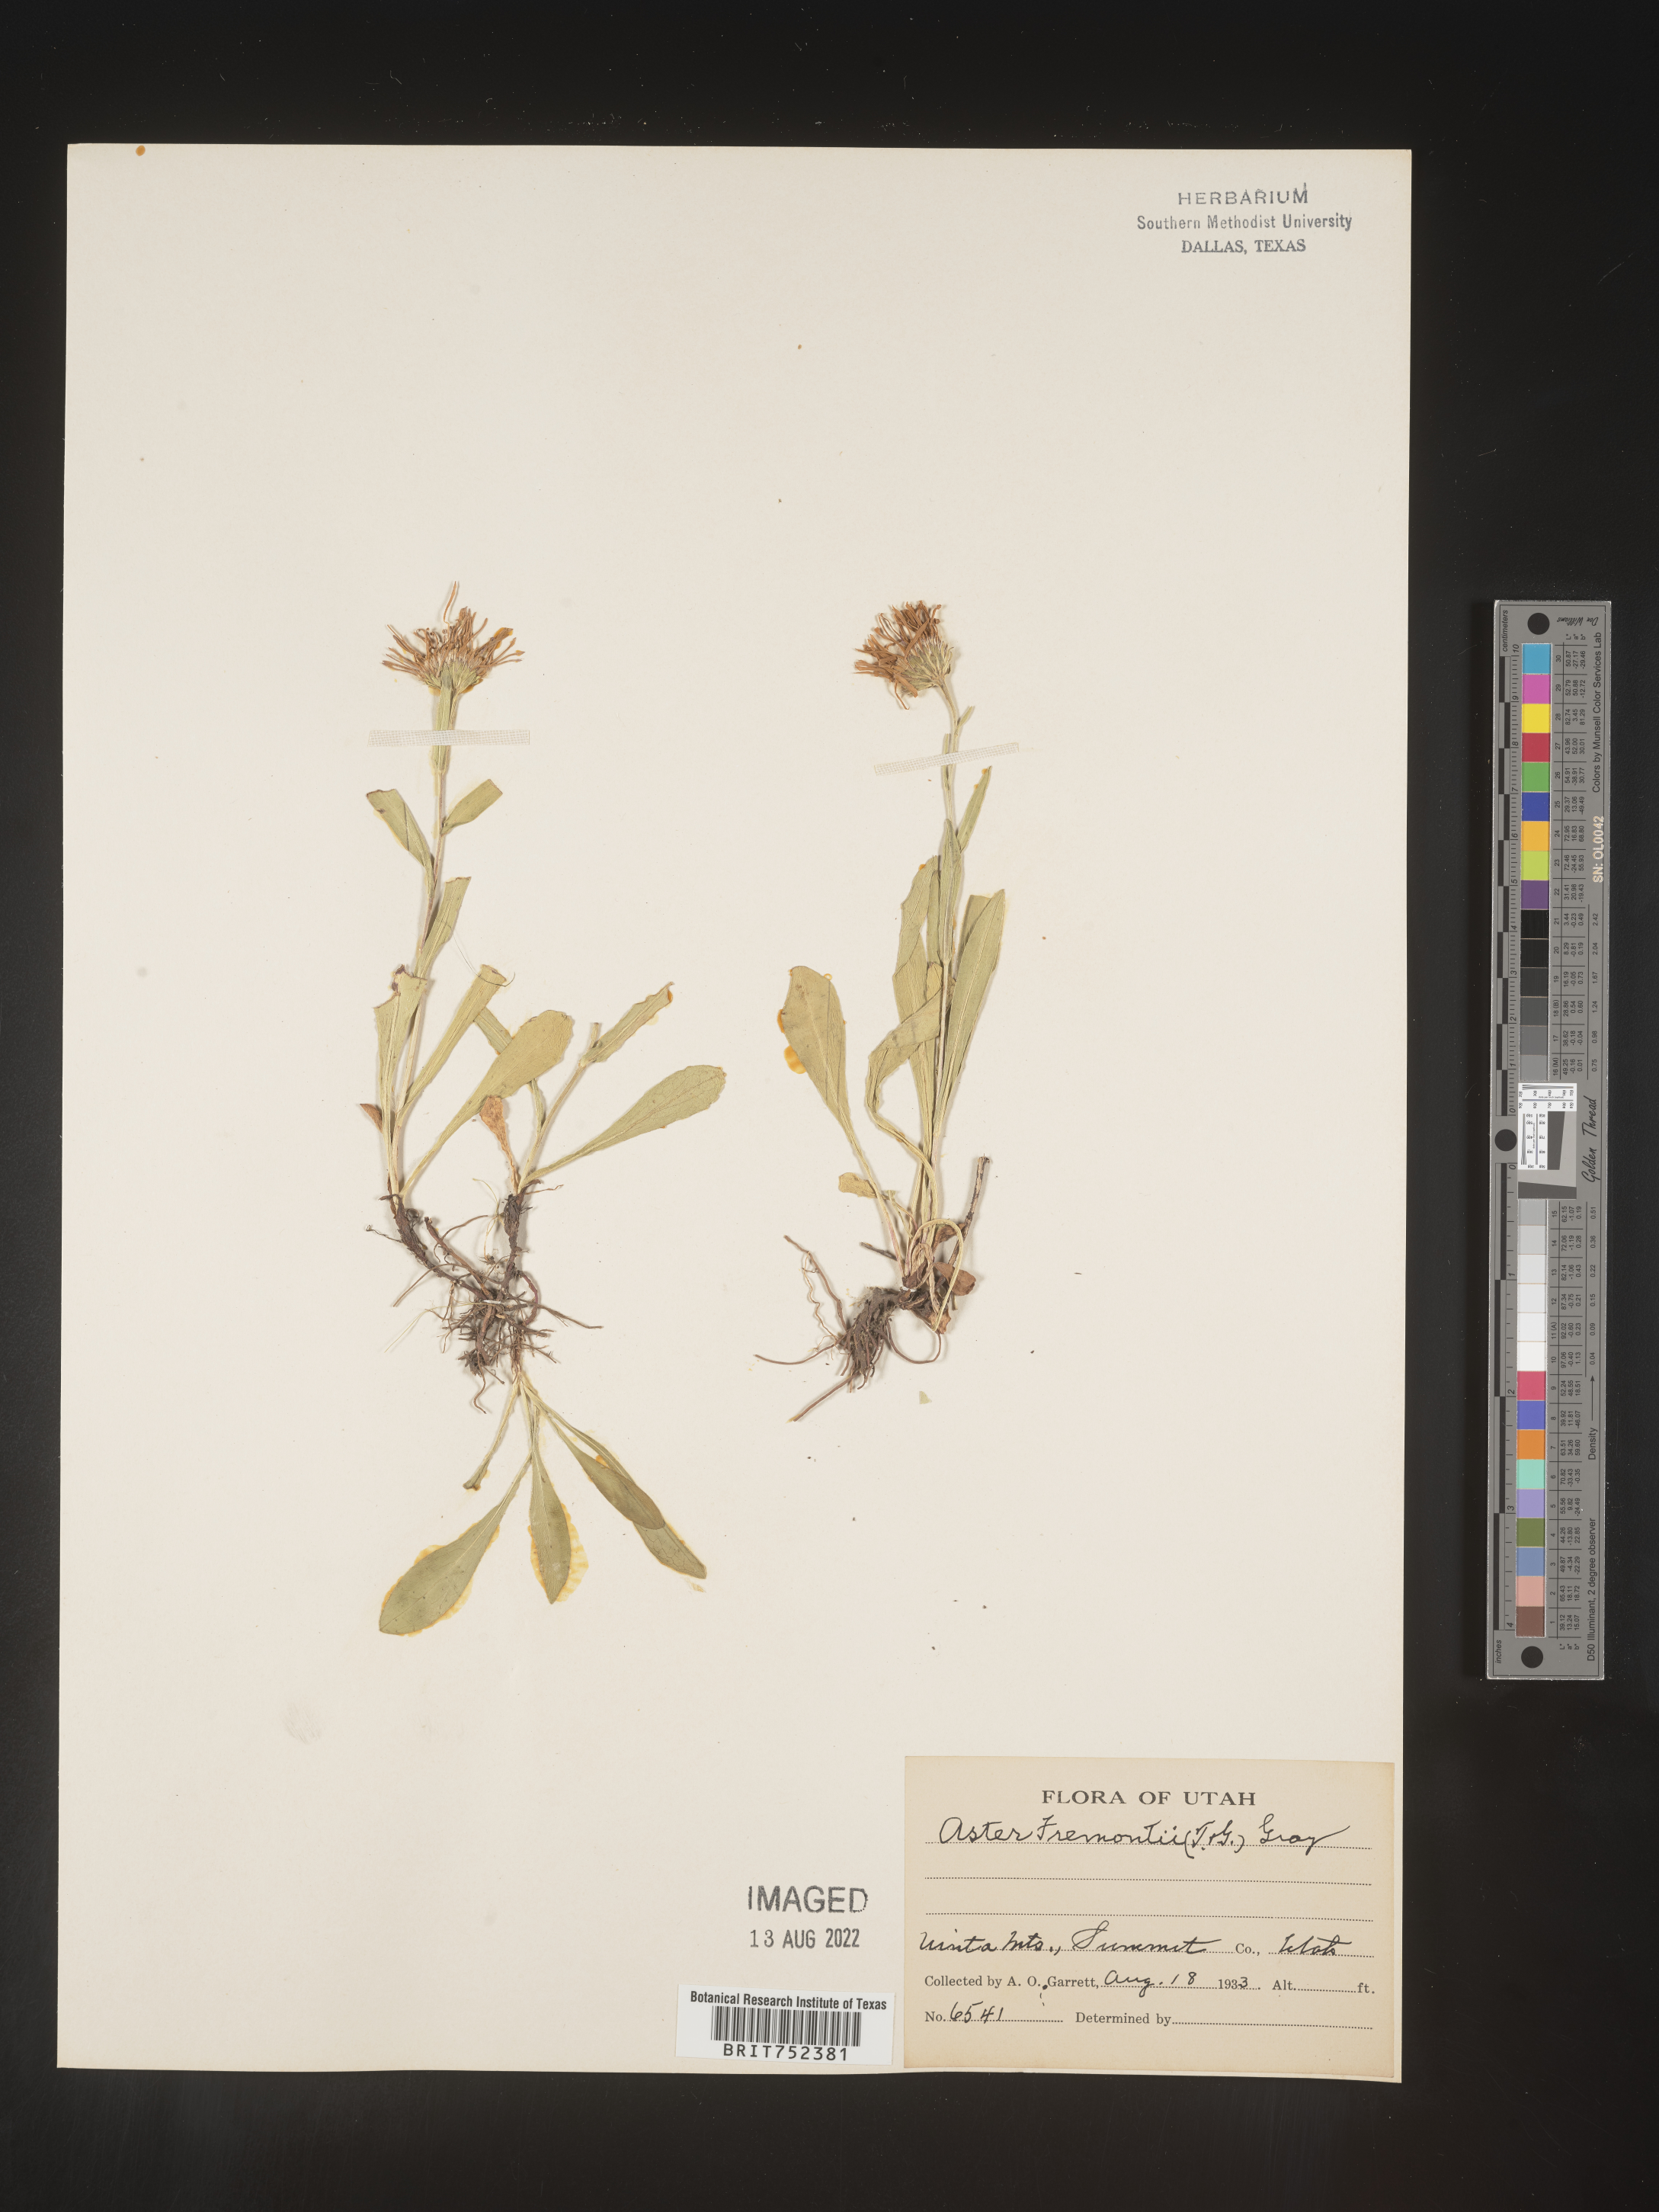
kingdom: Plantae
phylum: Tracheophyta
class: Magnoliopsida
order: Asterales
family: Asteraceae
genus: Symphyotrichum
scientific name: Symphyotrichum foliaceum
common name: Leafy aster
